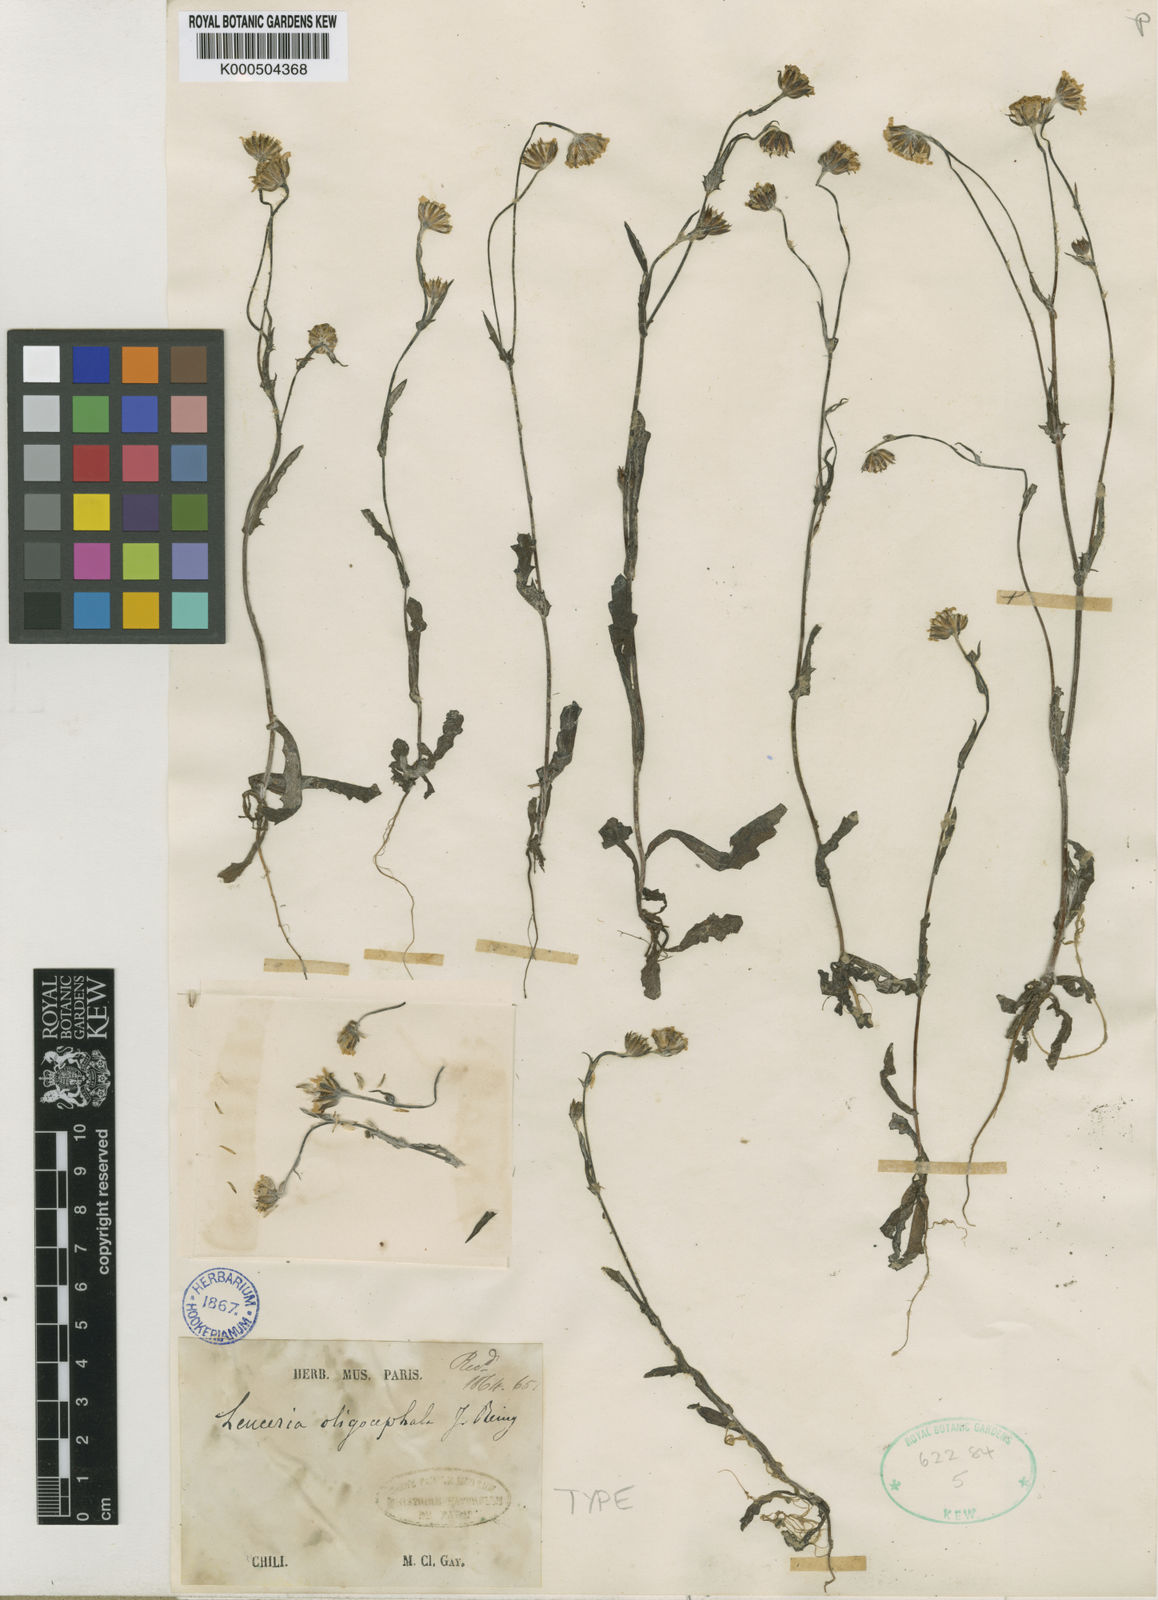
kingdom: Plantae
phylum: Tracheophyta
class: Magnoliopsida
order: Asterales
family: Asteraceae
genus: Leucheria
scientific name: Leucheria oligocephala
